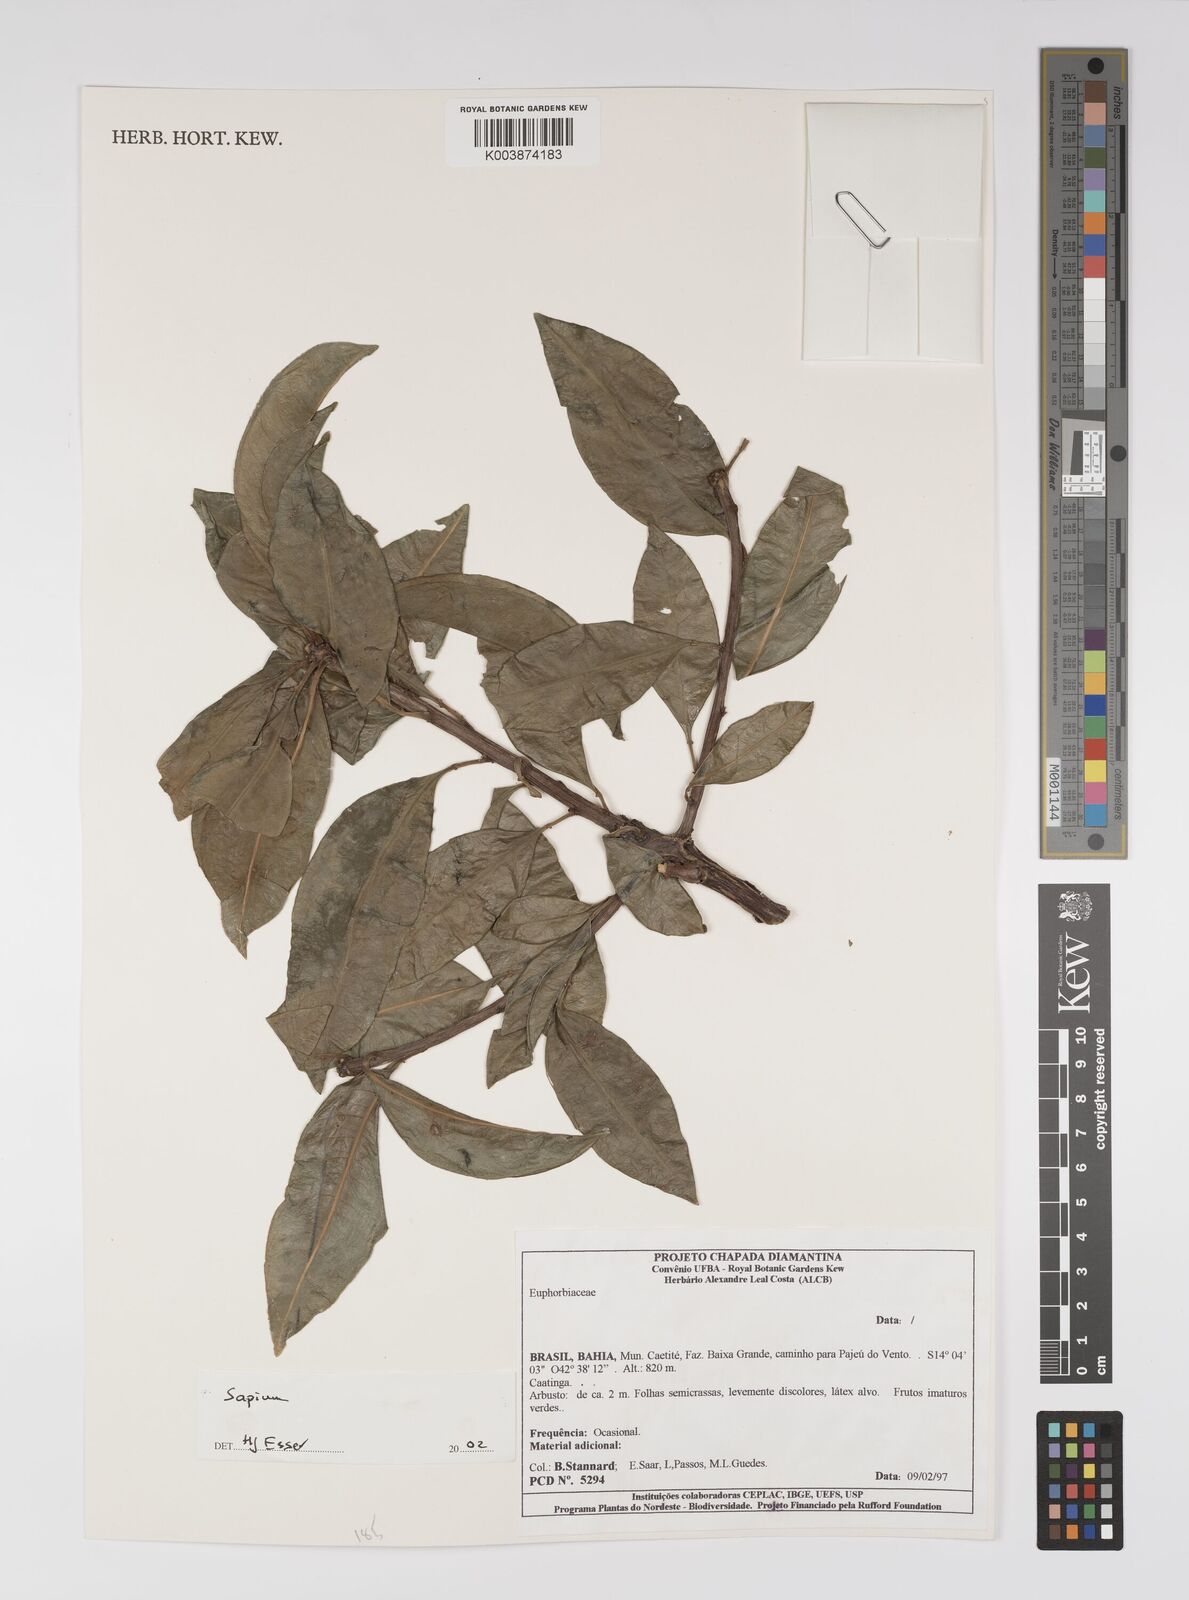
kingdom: Plantae
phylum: Tracheophyta
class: Magnoliopsida
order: Malpighiales
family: Euphorbiaceae
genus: Sapium
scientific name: Sapium
